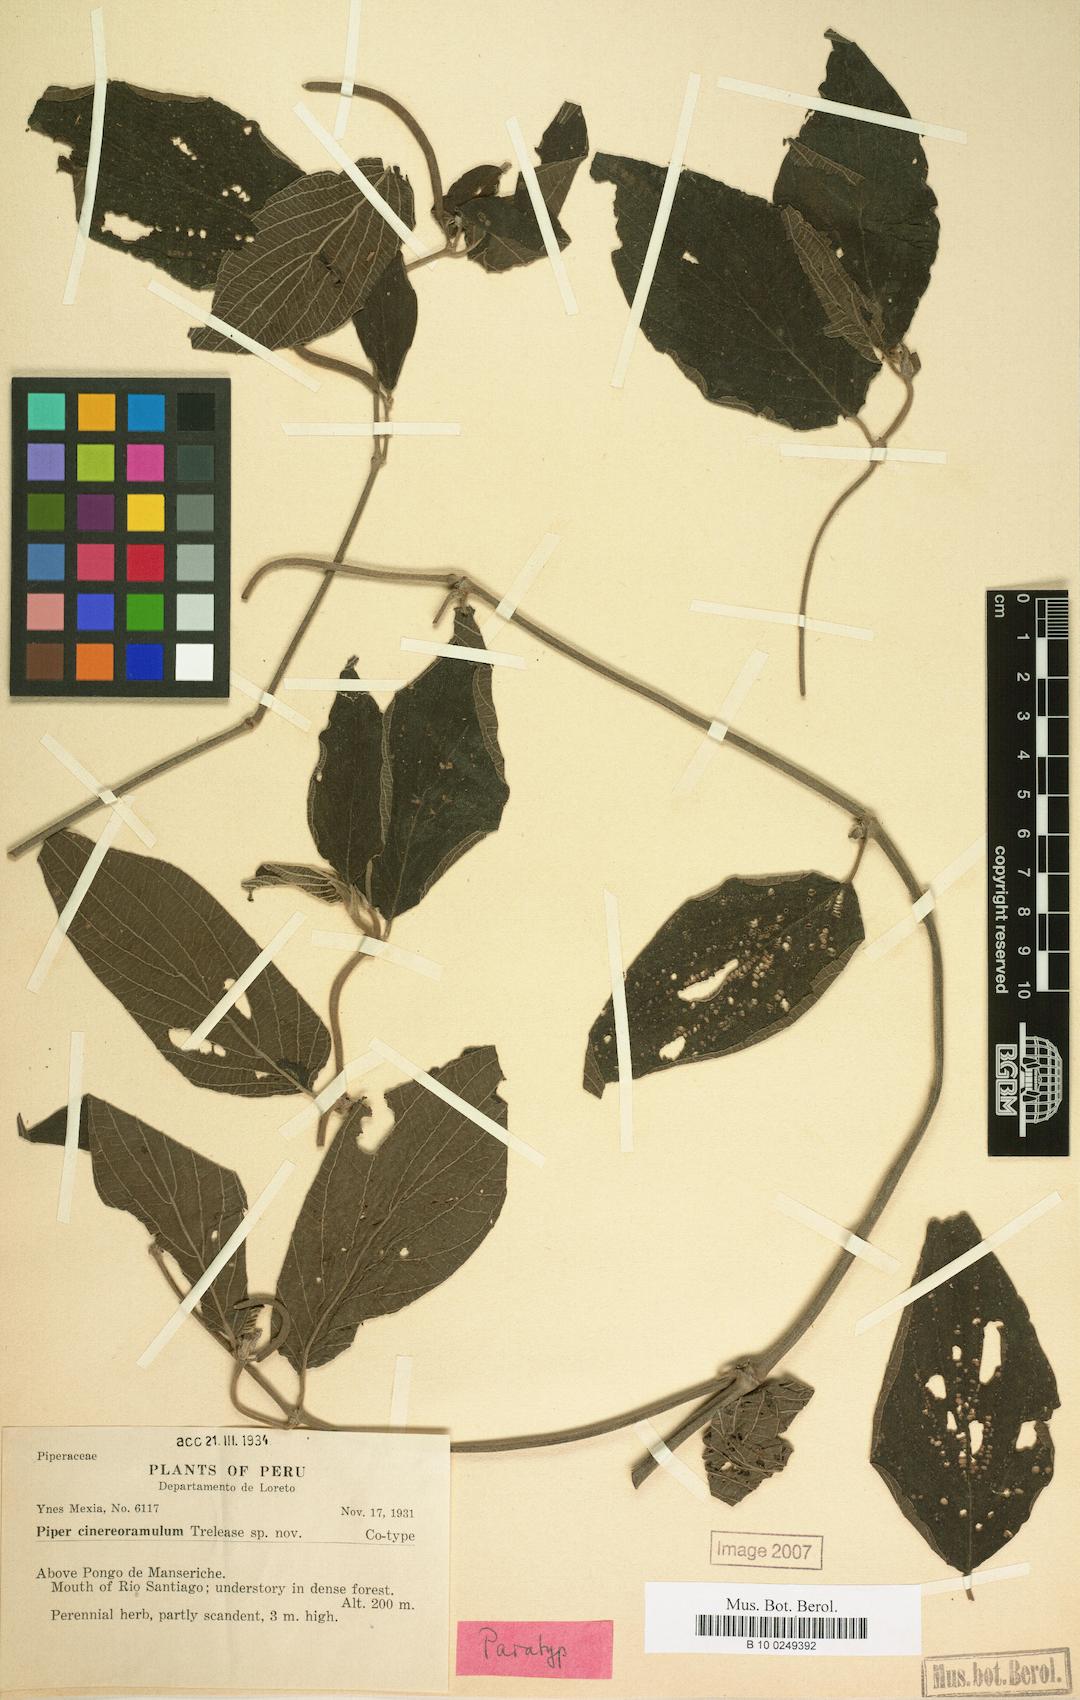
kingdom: Plantae
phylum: Tracheophyta
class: Magnoliopsida
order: Piperales
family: Piperaceae
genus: Piper
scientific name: Piper hispidum
